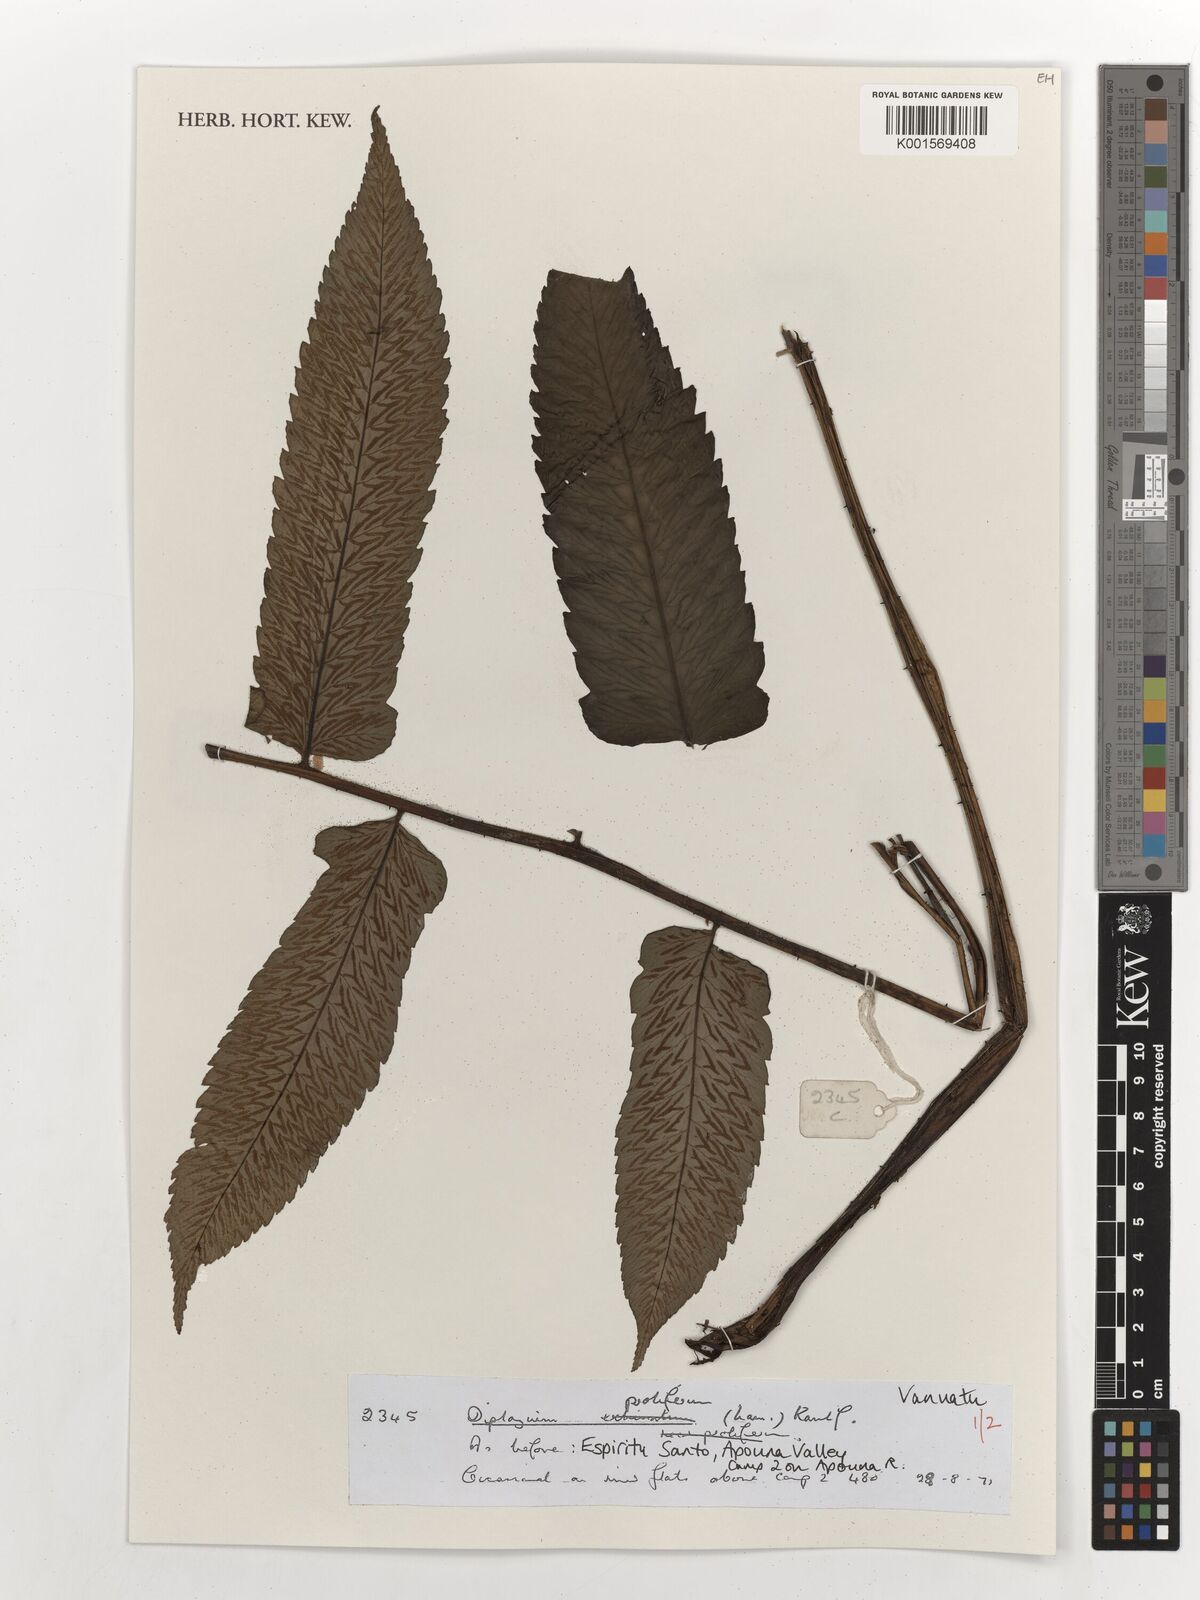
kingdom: Plantae
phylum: Tracheophyta
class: Polypodiopsida
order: Polypodiales
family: Athyriaceae
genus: Diplazium
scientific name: Diplazium proliferum
